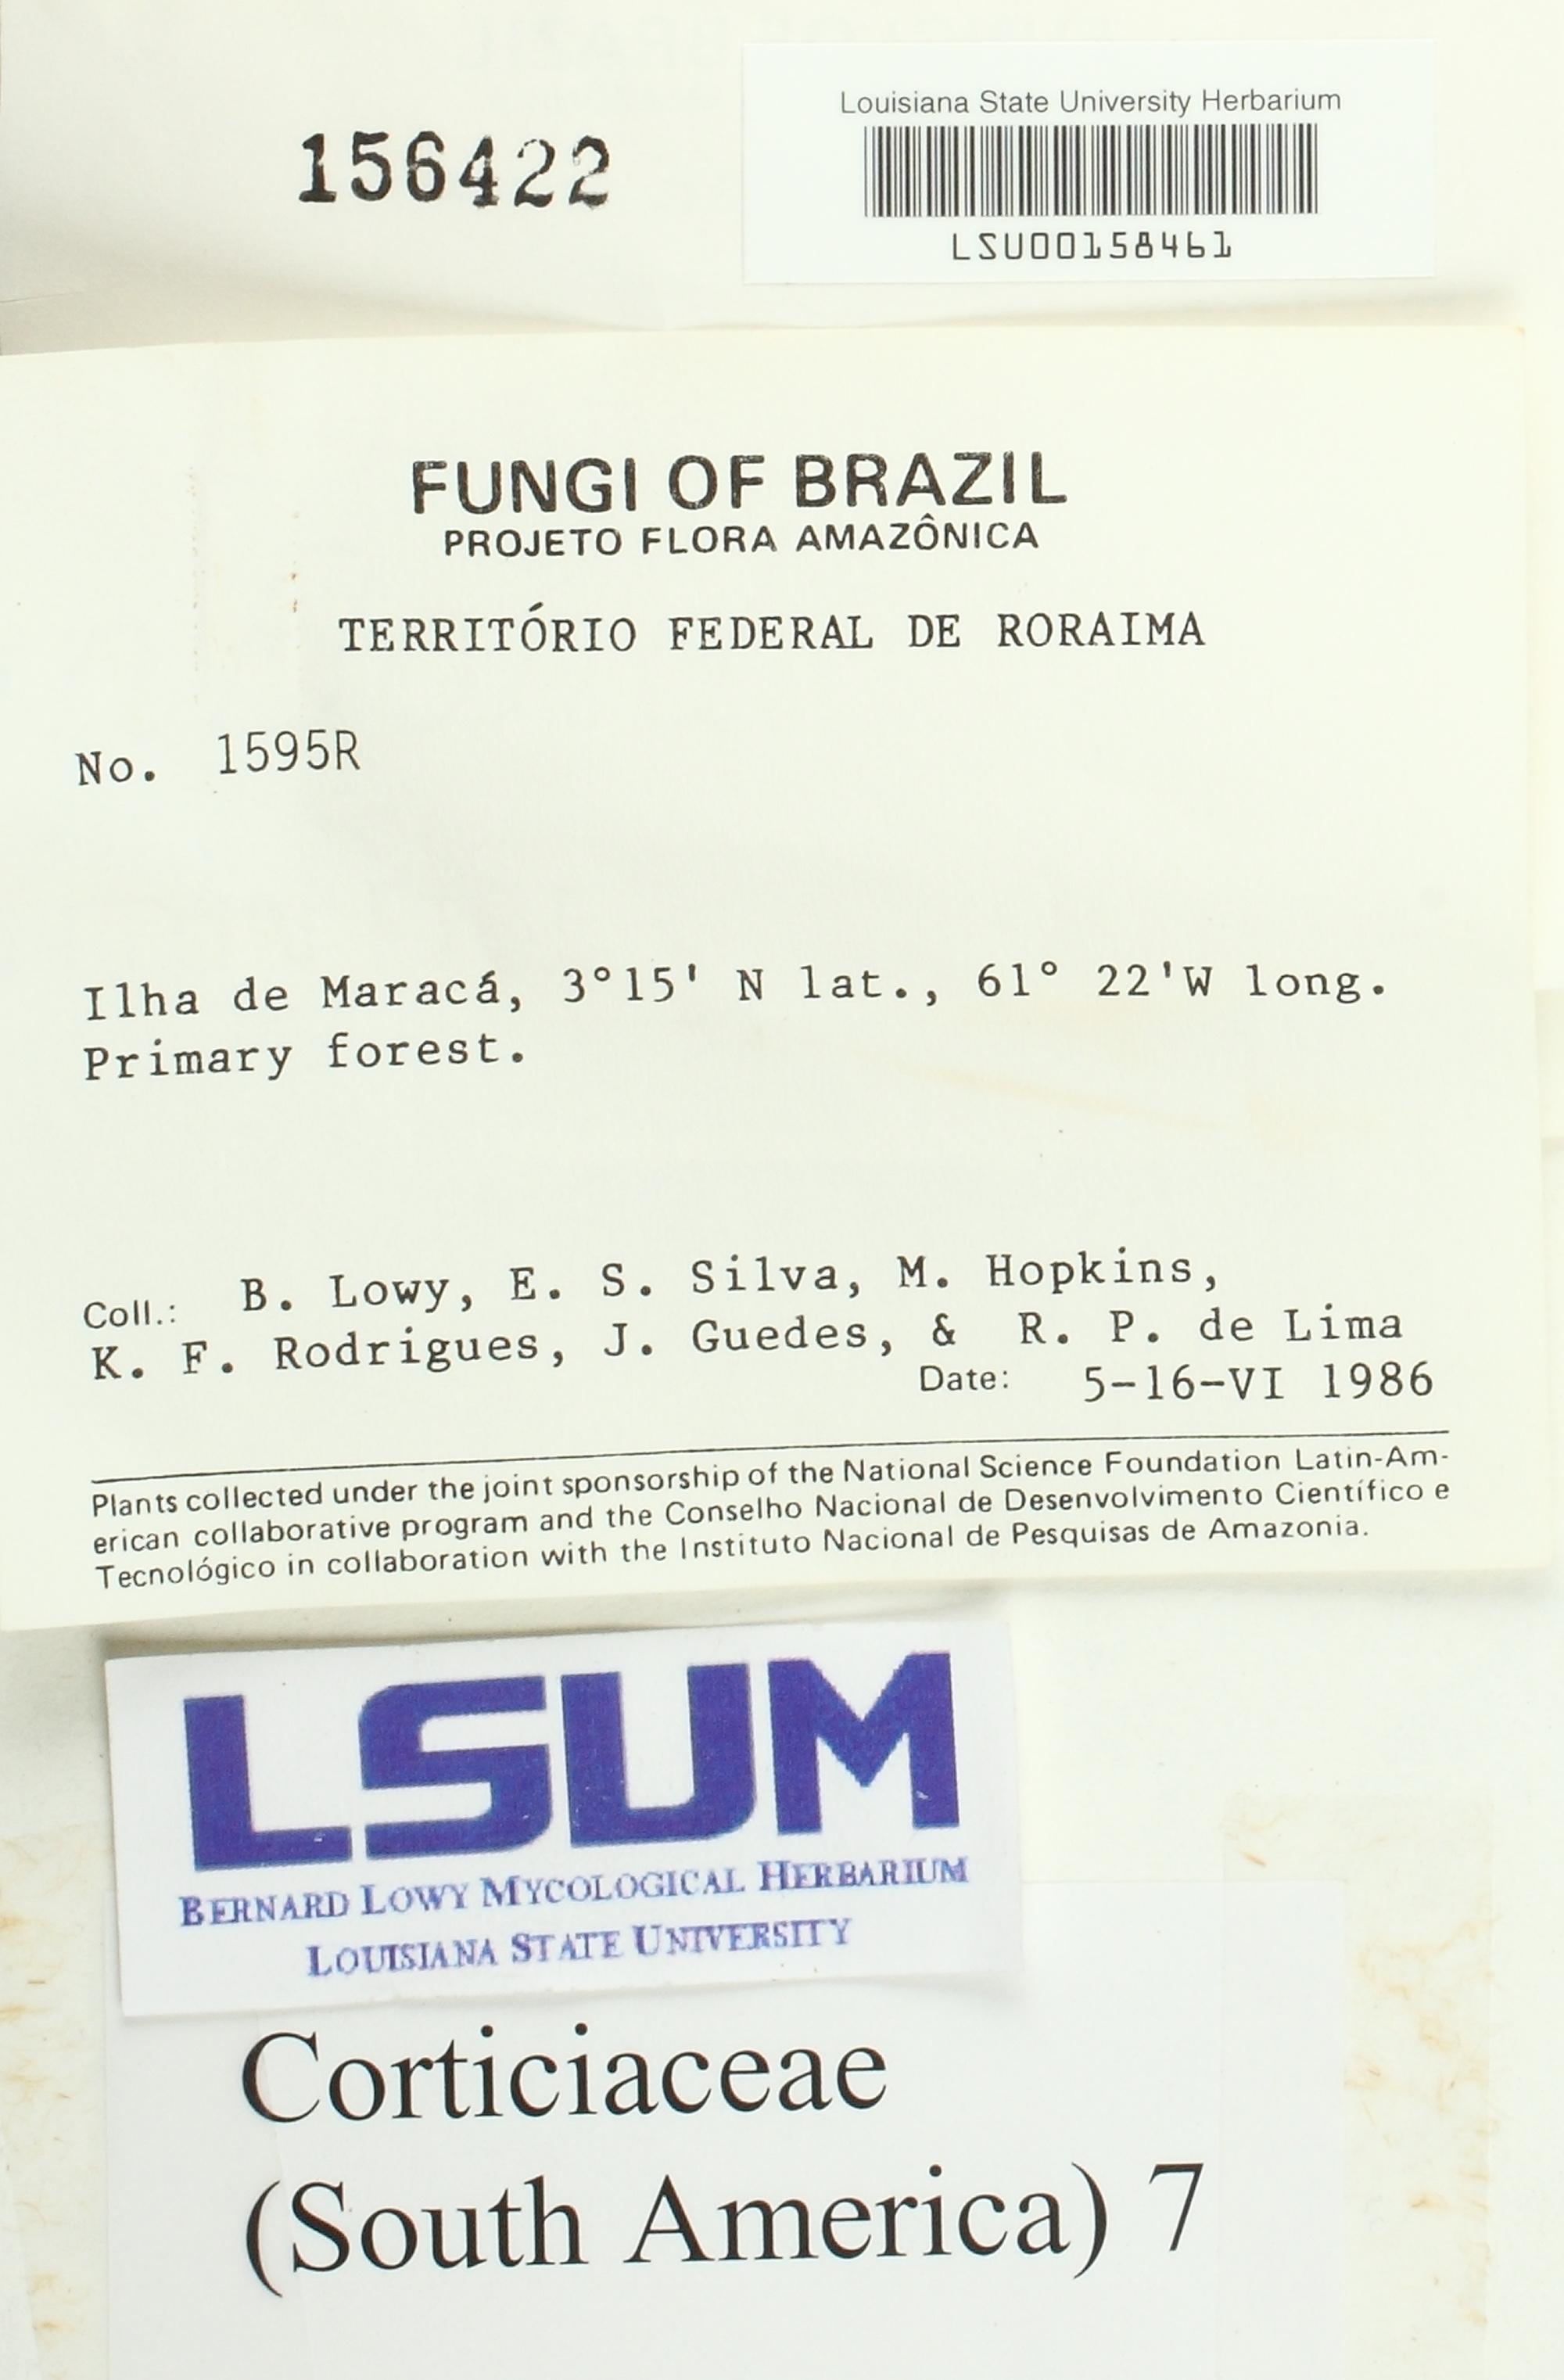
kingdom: Fungi
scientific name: Fungi
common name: Fungi
